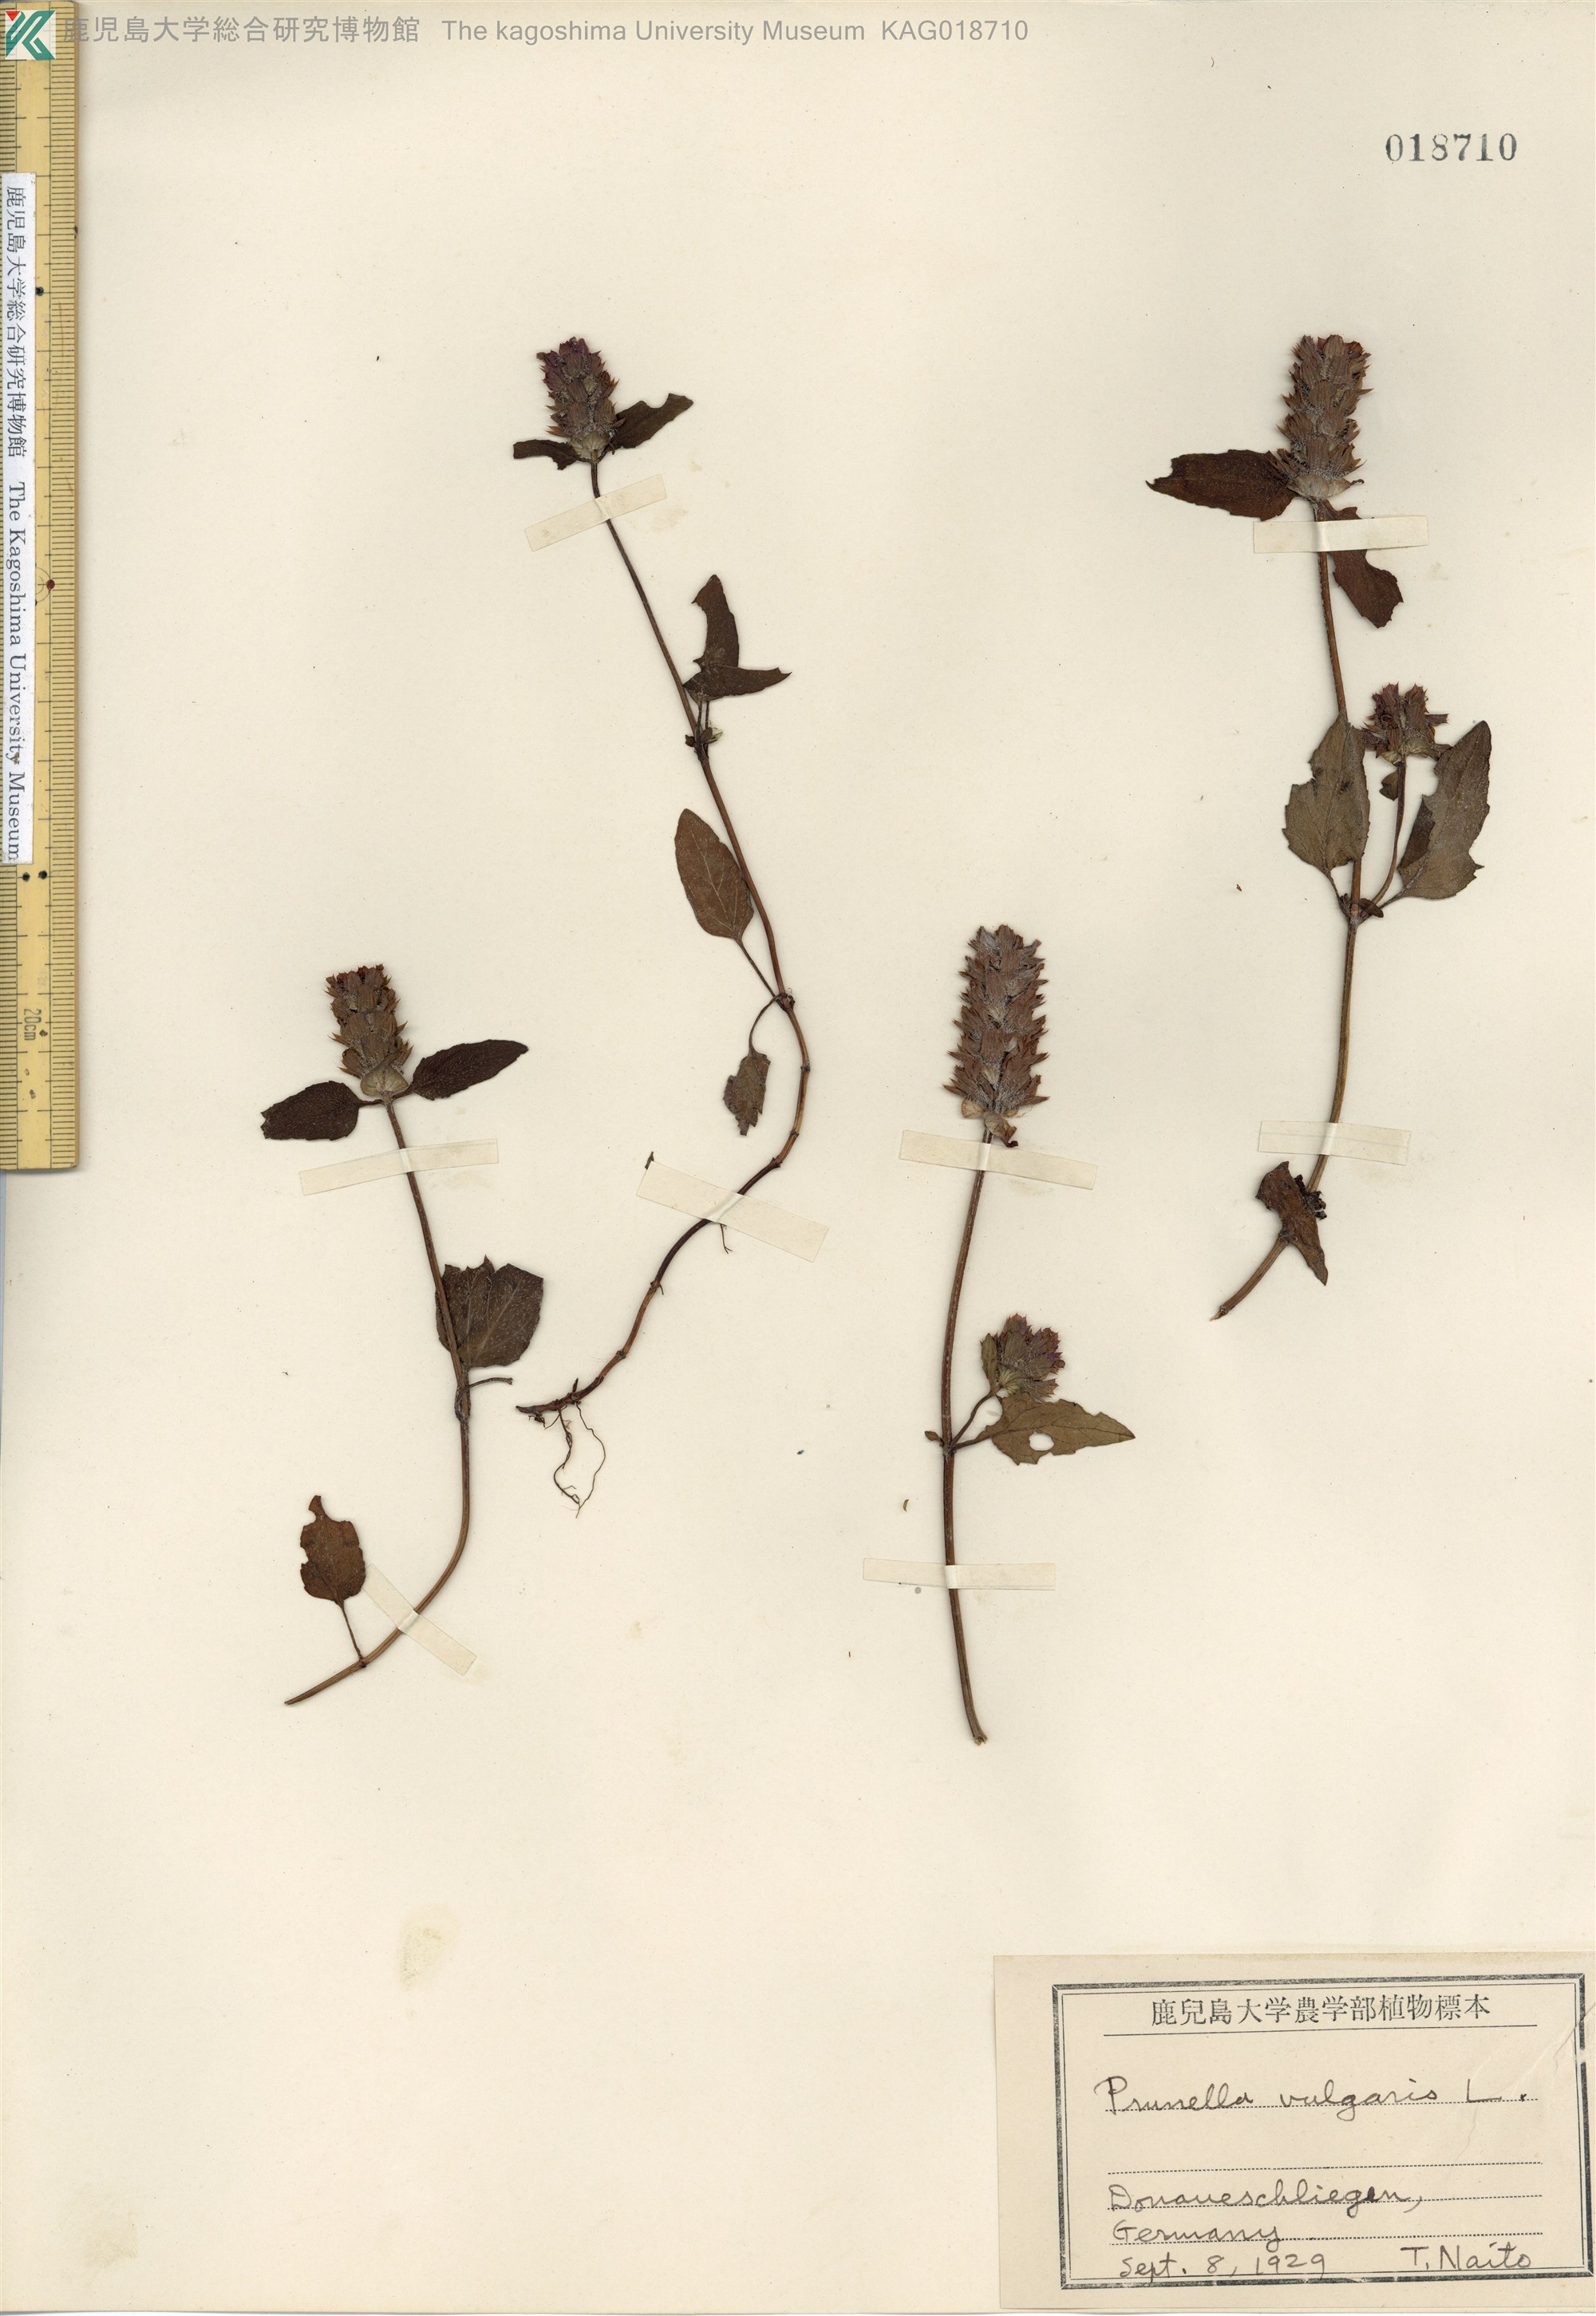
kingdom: Plantae
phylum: Tracheophyta
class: Magnoliopsida
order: Lamiales
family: Lamiaceae
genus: Prunella
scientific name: Prunella vulgaris
